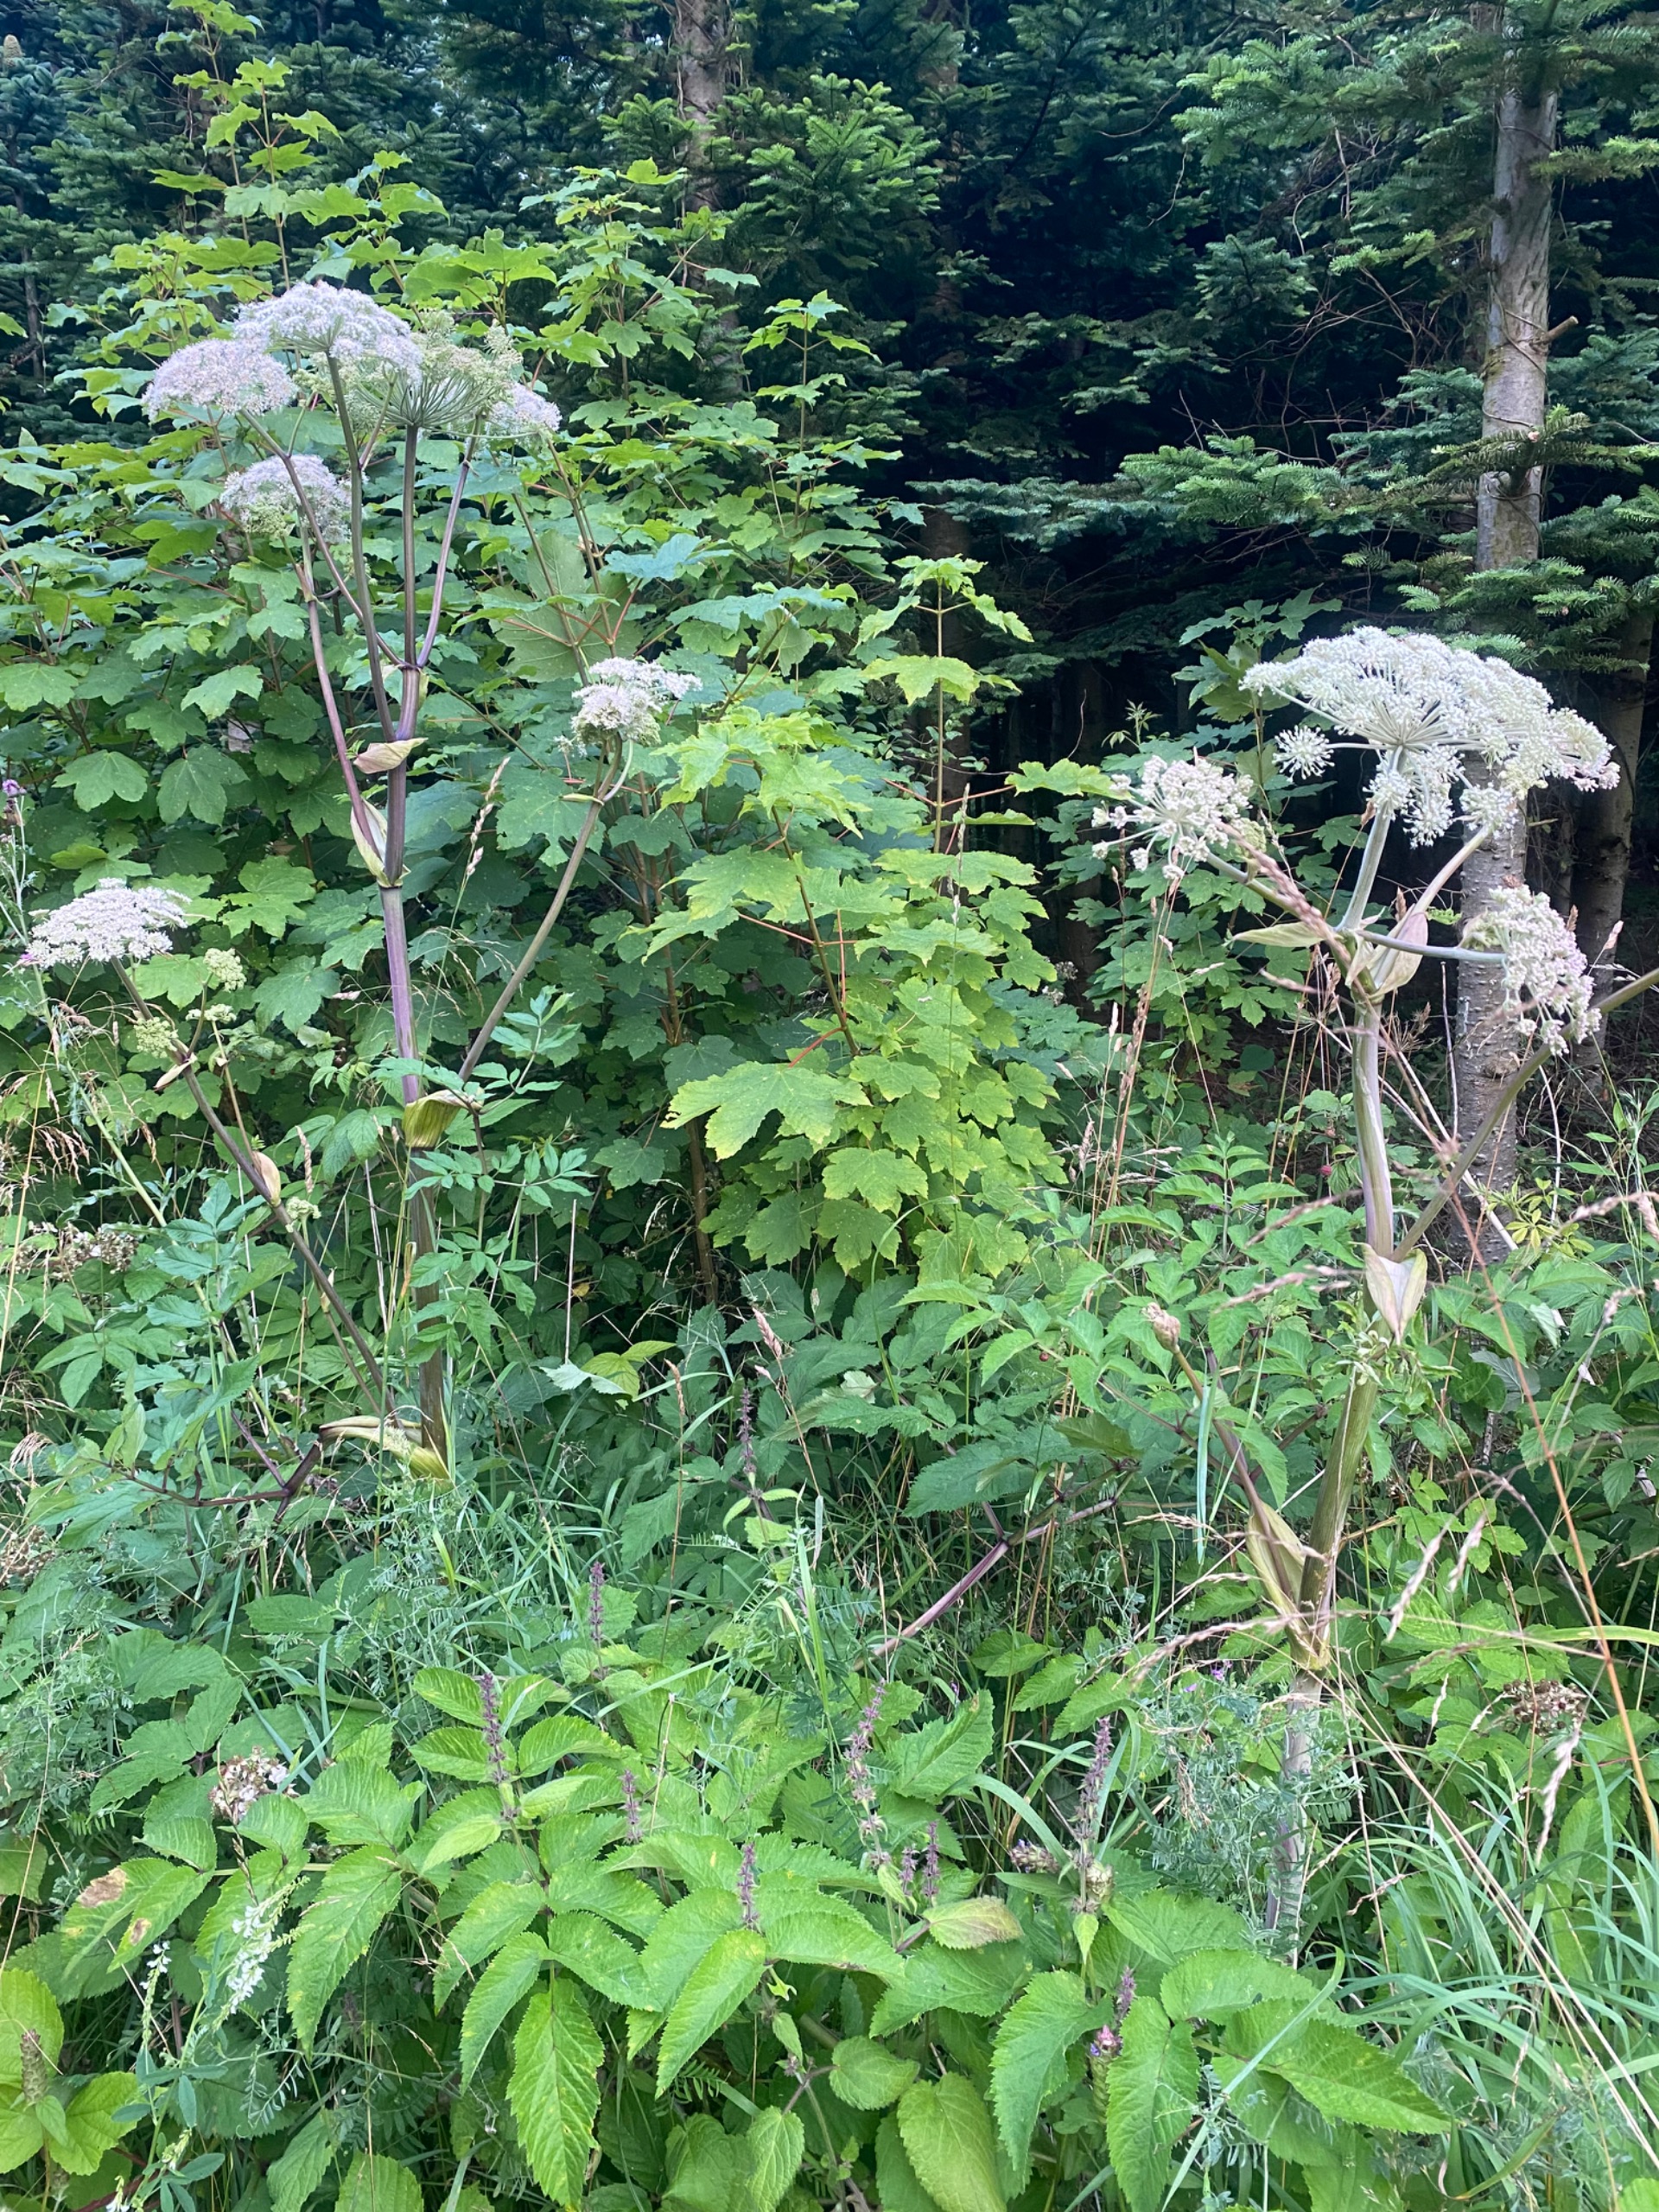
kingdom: Plantae
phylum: Tracheophyta
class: Magnoliopsida
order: Apiales
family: Apiaceae
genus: Angelica
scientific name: Angelica sylvestris
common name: Angelik
